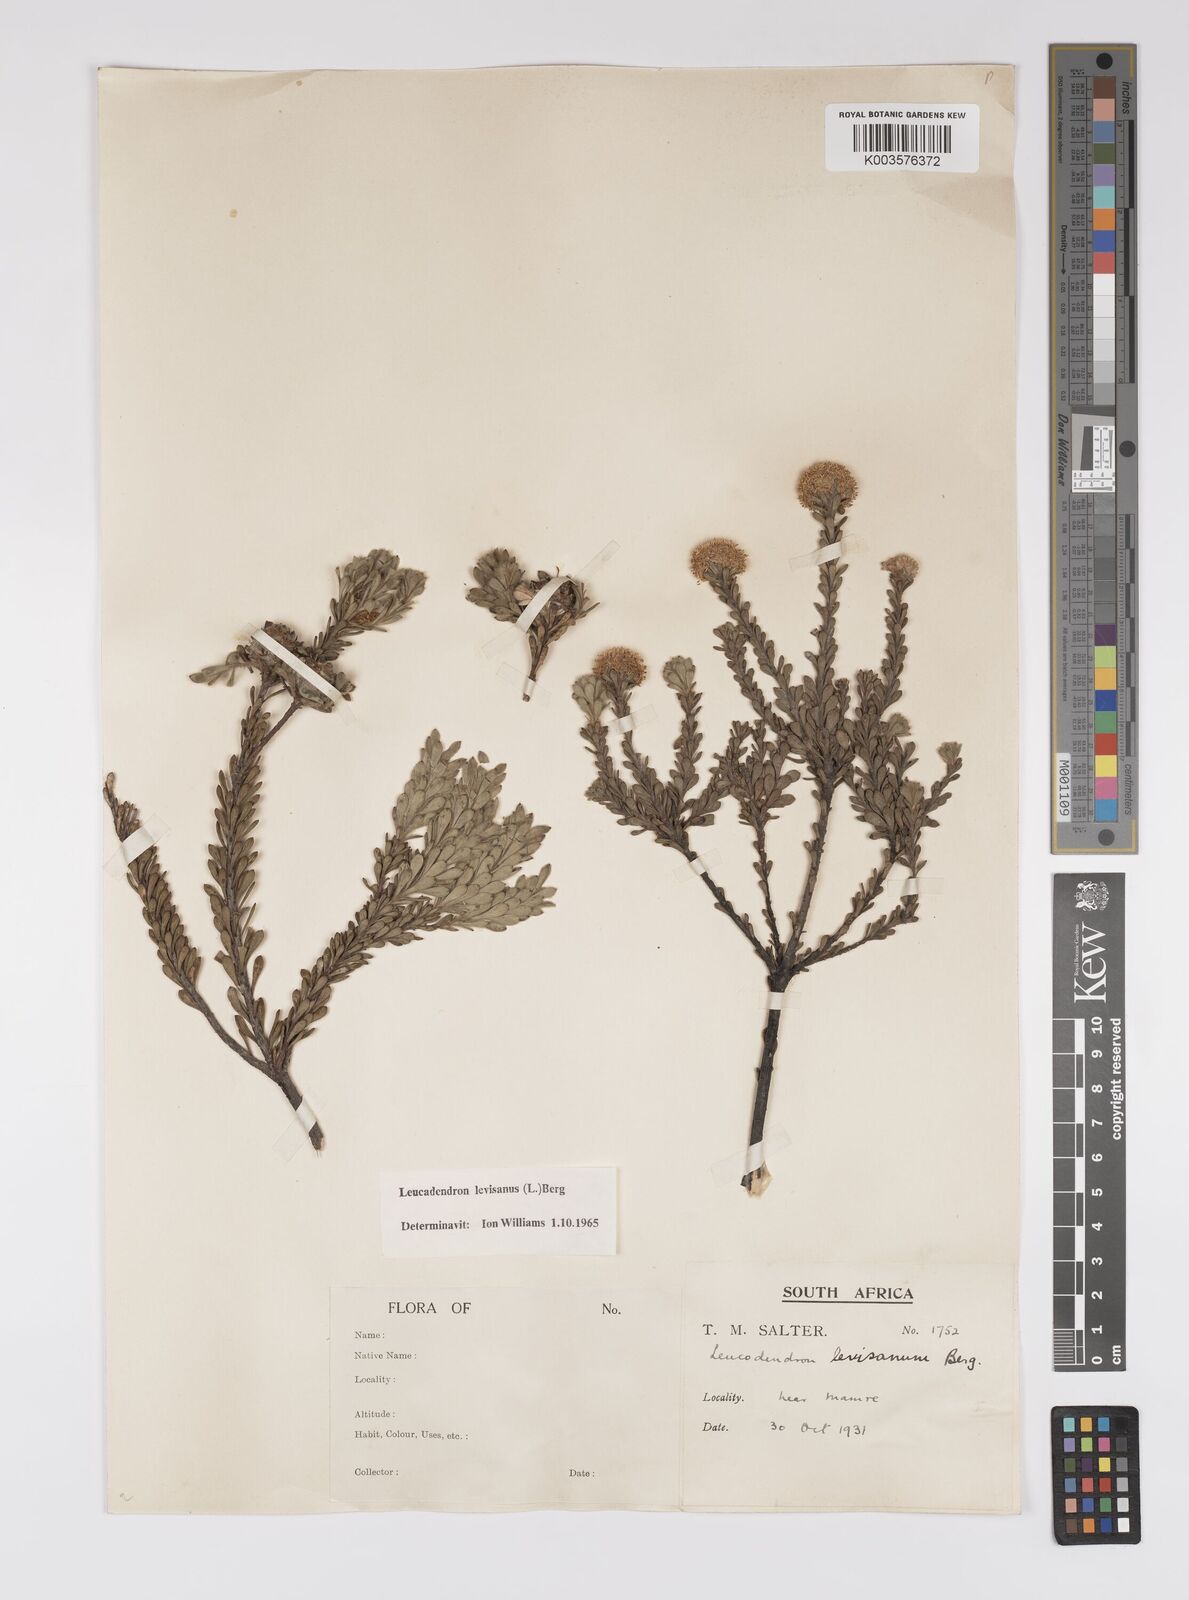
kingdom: Plantae
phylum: Tracheophyta
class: Magnoliopsida
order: Proteales
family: Proteaceae
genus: Leucadendron
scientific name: Leucadendron levisanus
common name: Cape flats conebush
